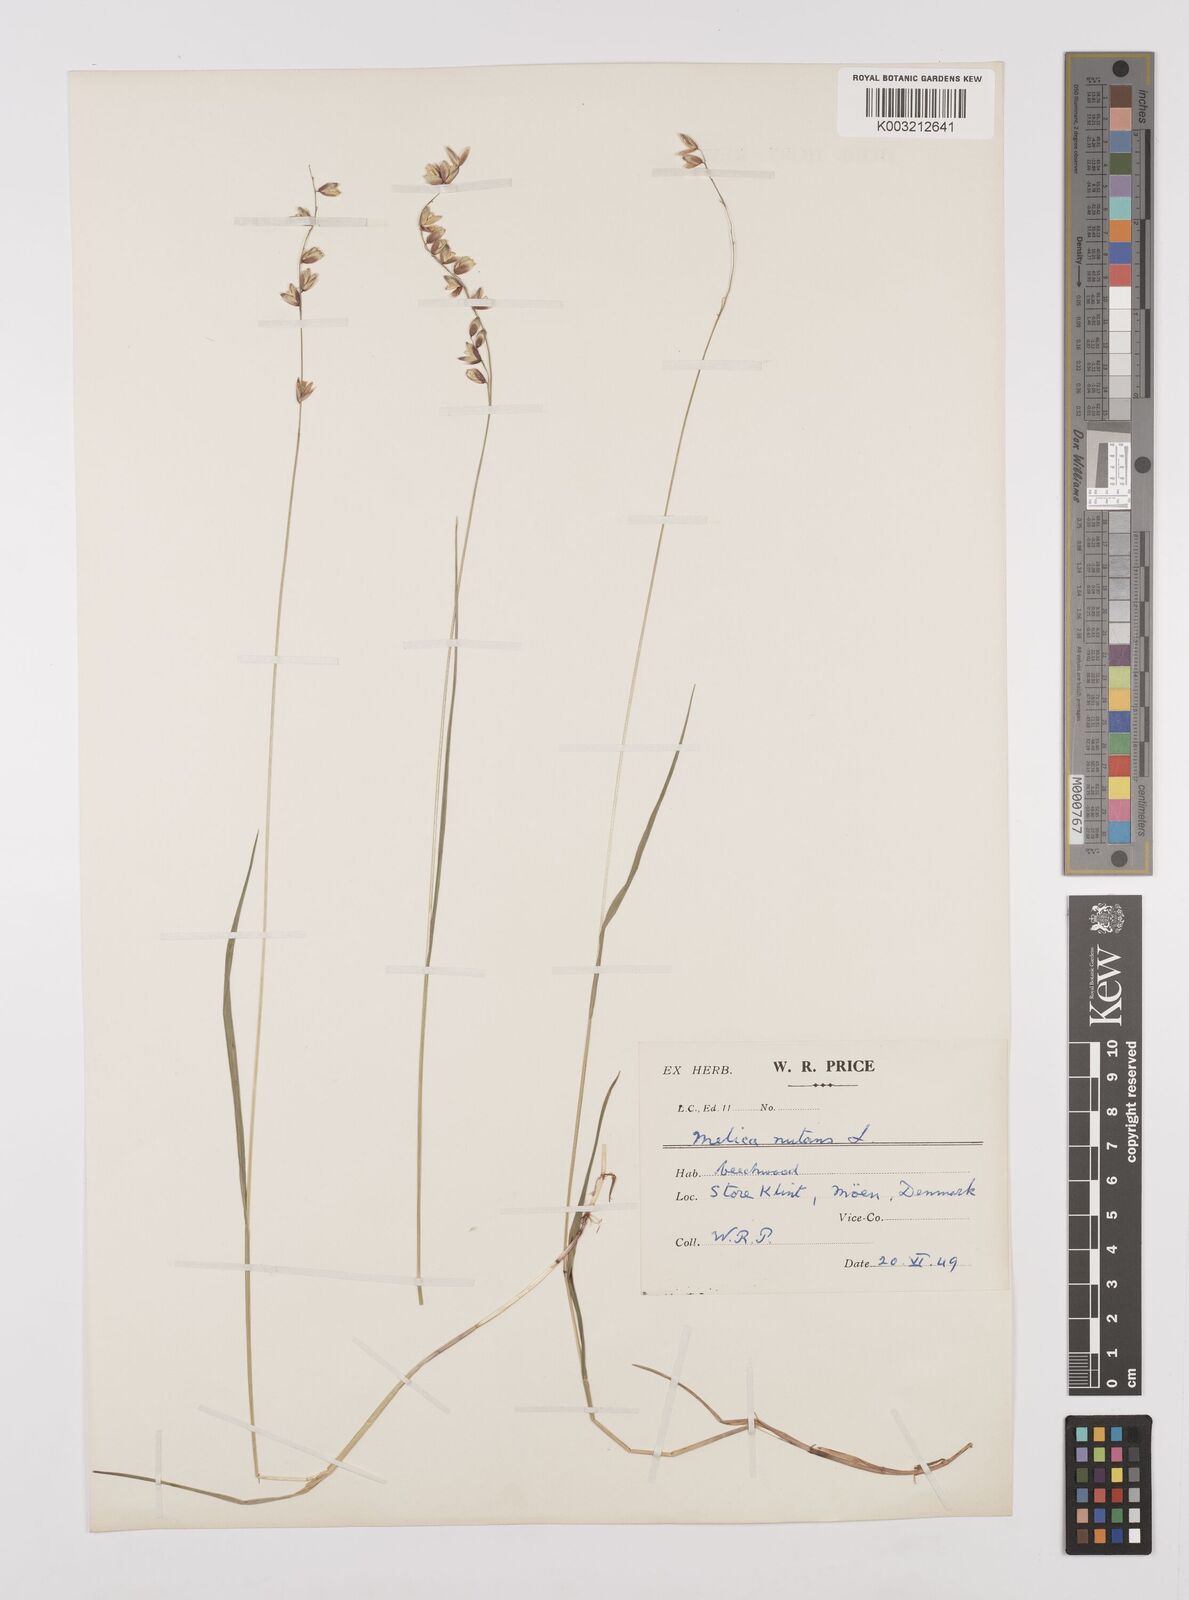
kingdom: Plantae
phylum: Tracheophyta
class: Liliopsida
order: Poales
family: Poaceae
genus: Melica
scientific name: Melica
